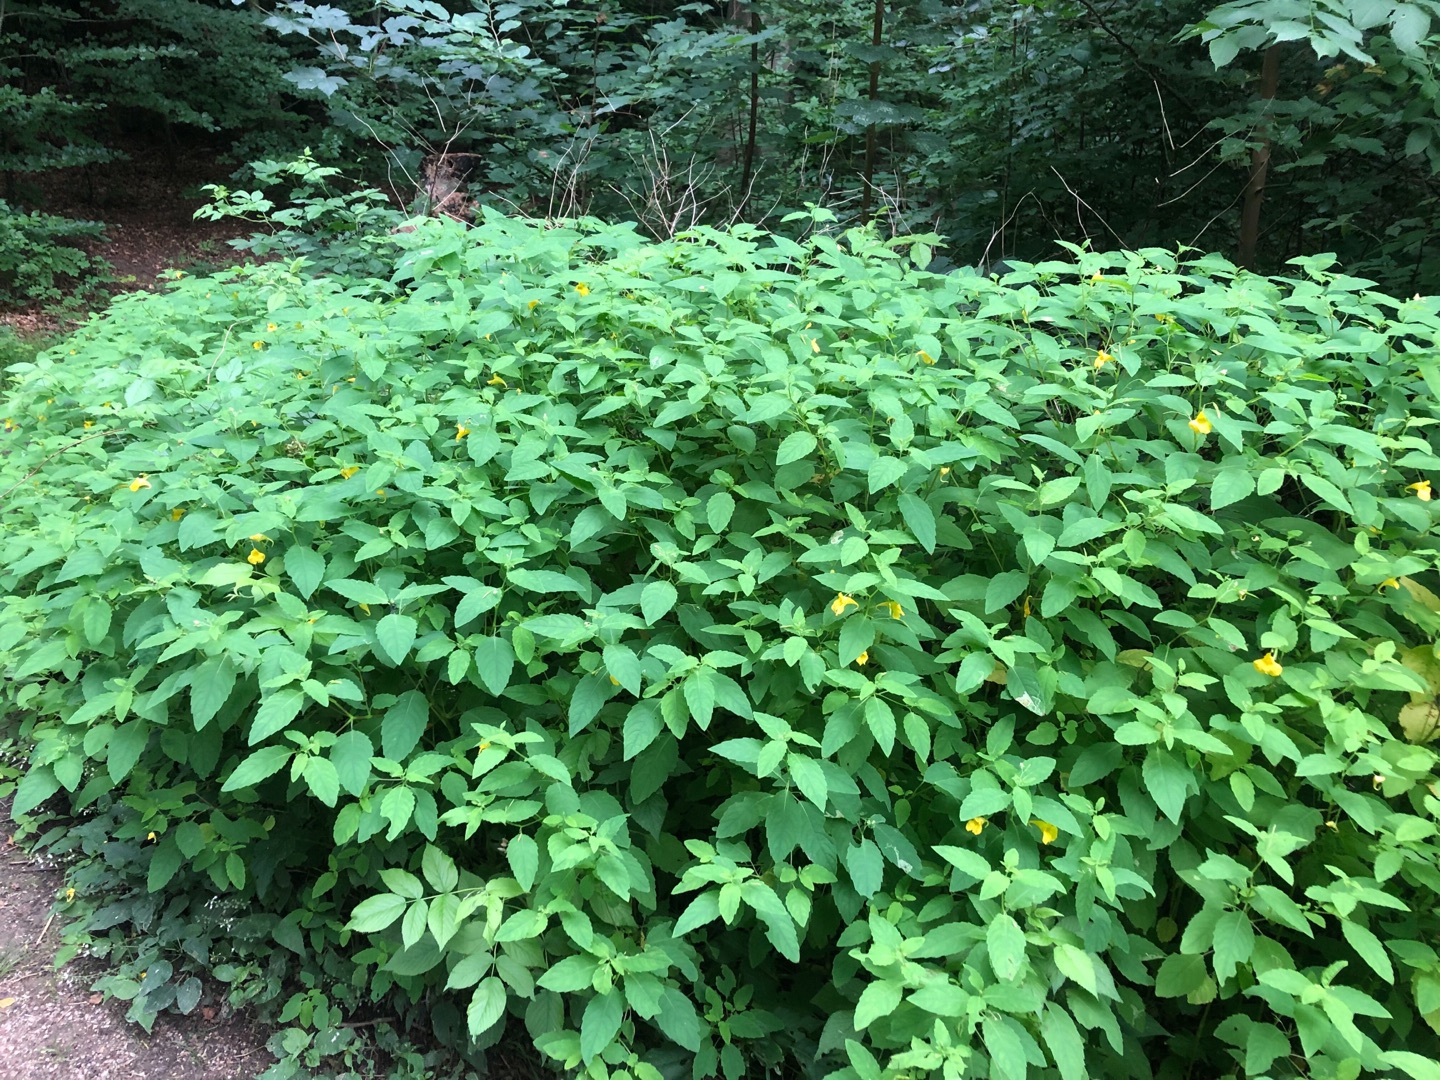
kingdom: Plantae
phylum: Tracheophyta
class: Magnoliopsida
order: Ericales
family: Balsaminaceae
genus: Impatiens
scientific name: Impatiens noli-tangere
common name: Spring-balsamin
